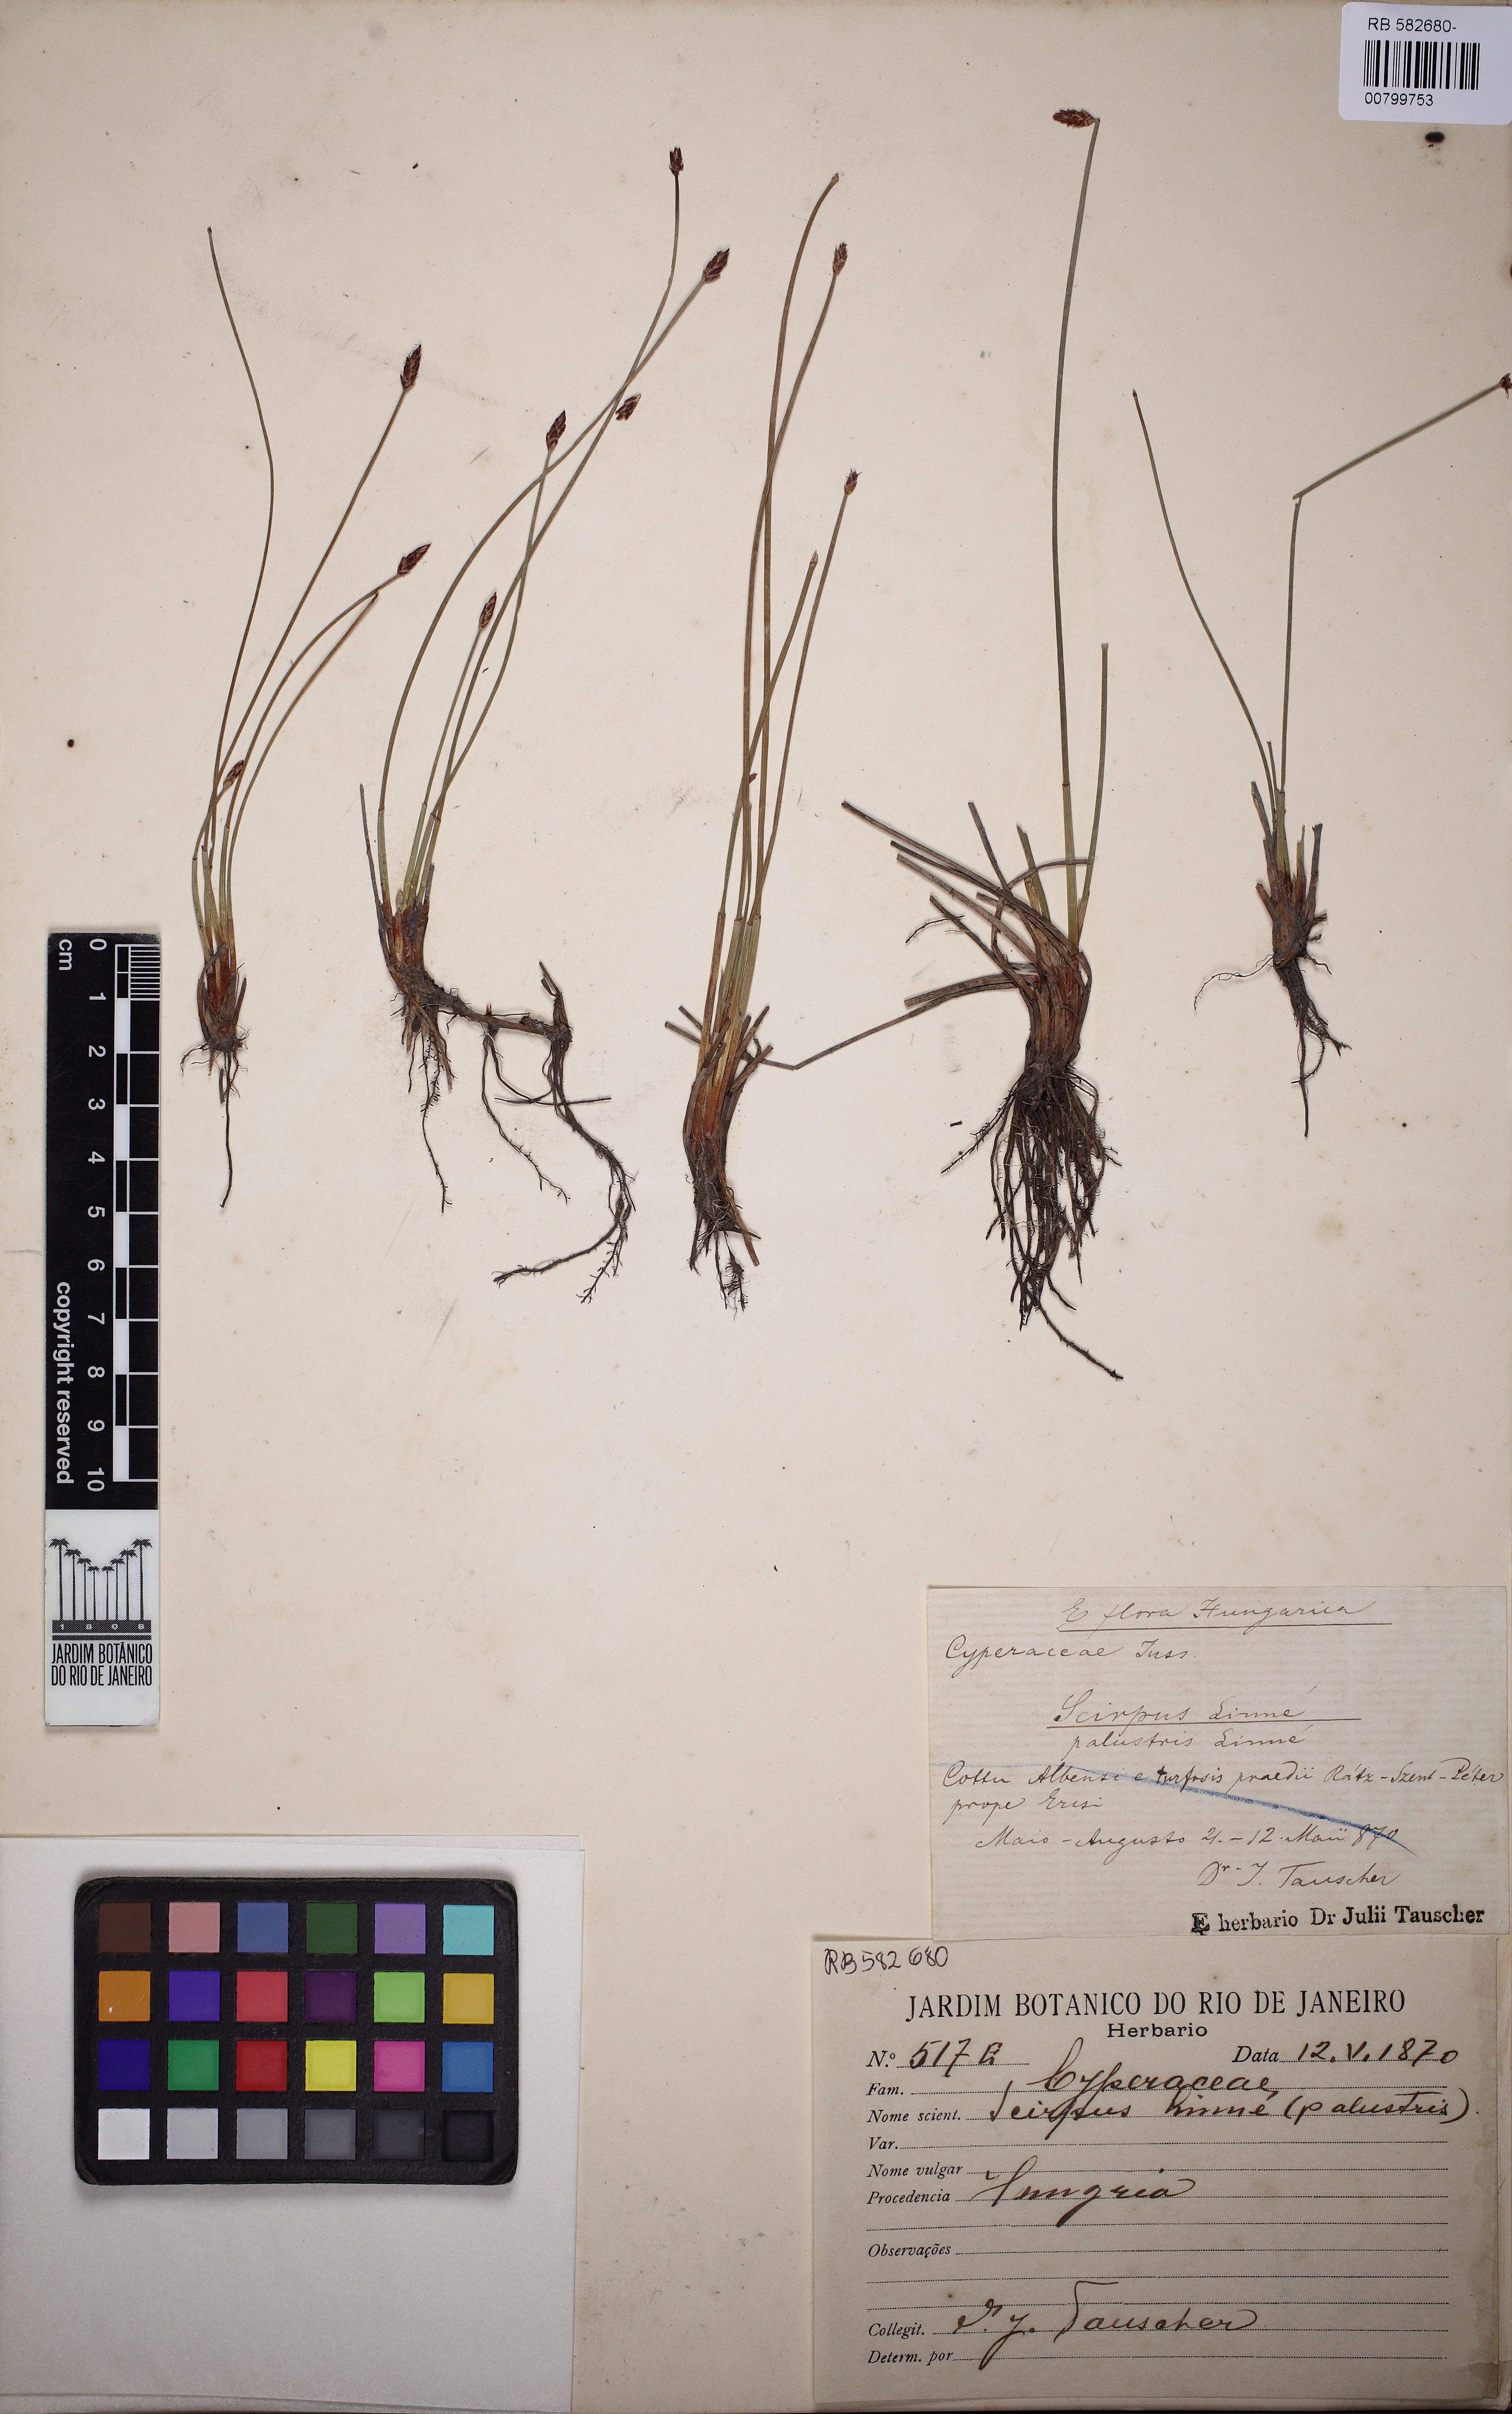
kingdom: Plantae
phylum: Tracheophyta
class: Liliopsida
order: Poales
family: Cyperaceae
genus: Eleocharis
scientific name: Eleocharis palustris
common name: Common spike-rush
